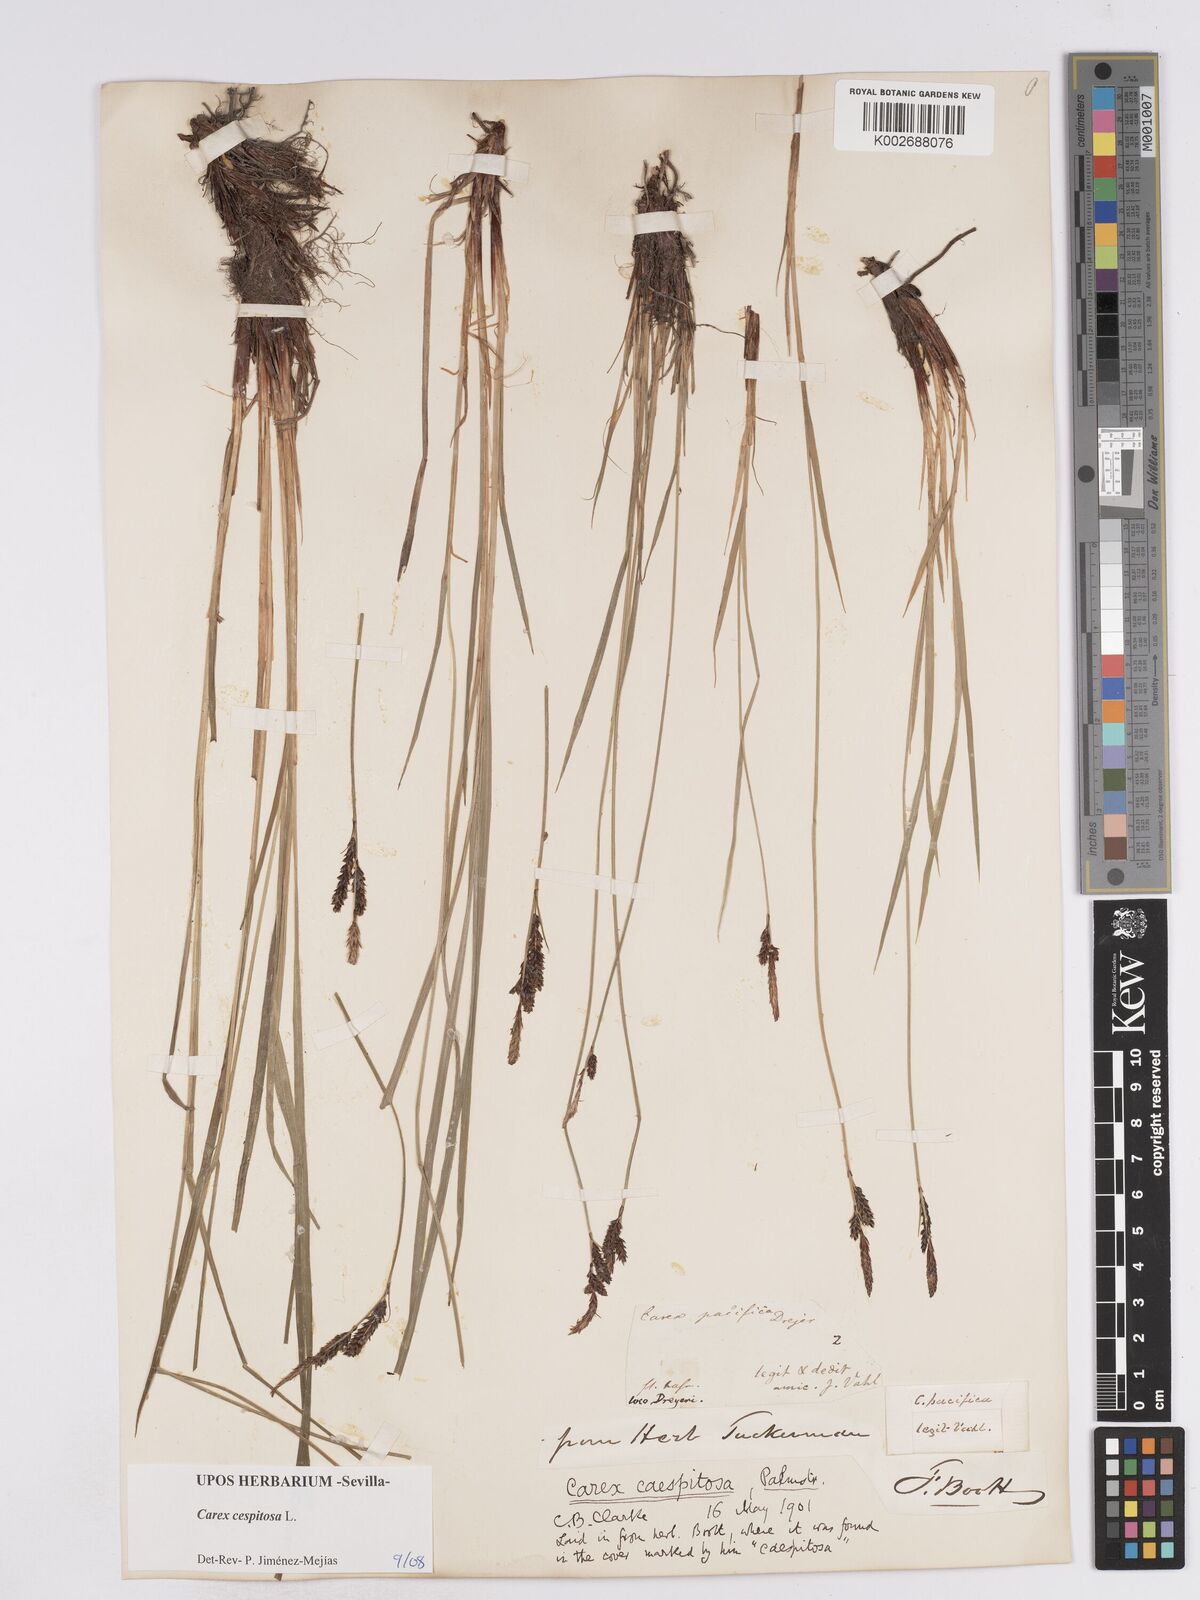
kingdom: Plantae
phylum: Tracheophyta
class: Liliopsida
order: Poales
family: Cyperaceae
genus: Carex
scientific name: Carex
